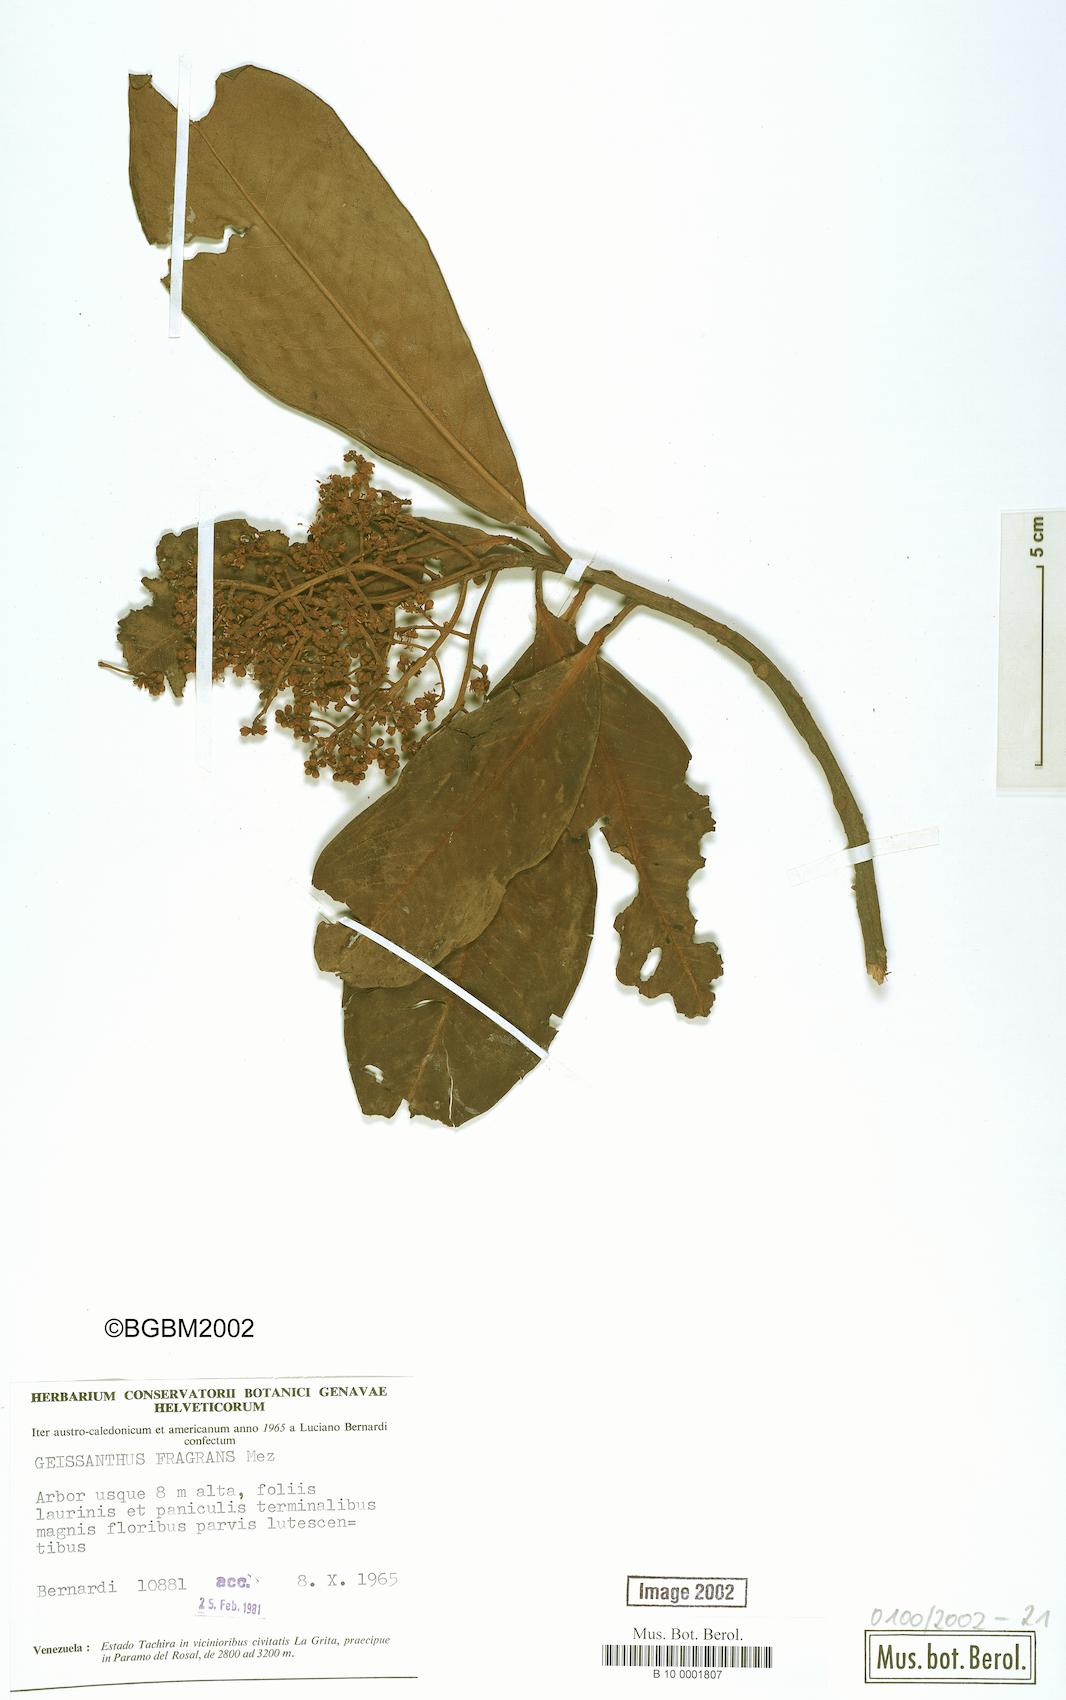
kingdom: Plantae
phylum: Tracheophyta
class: Magnoliopsida
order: Ericales
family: Primulaceae
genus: Geissanthus
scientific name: Geissanthus fragrans
